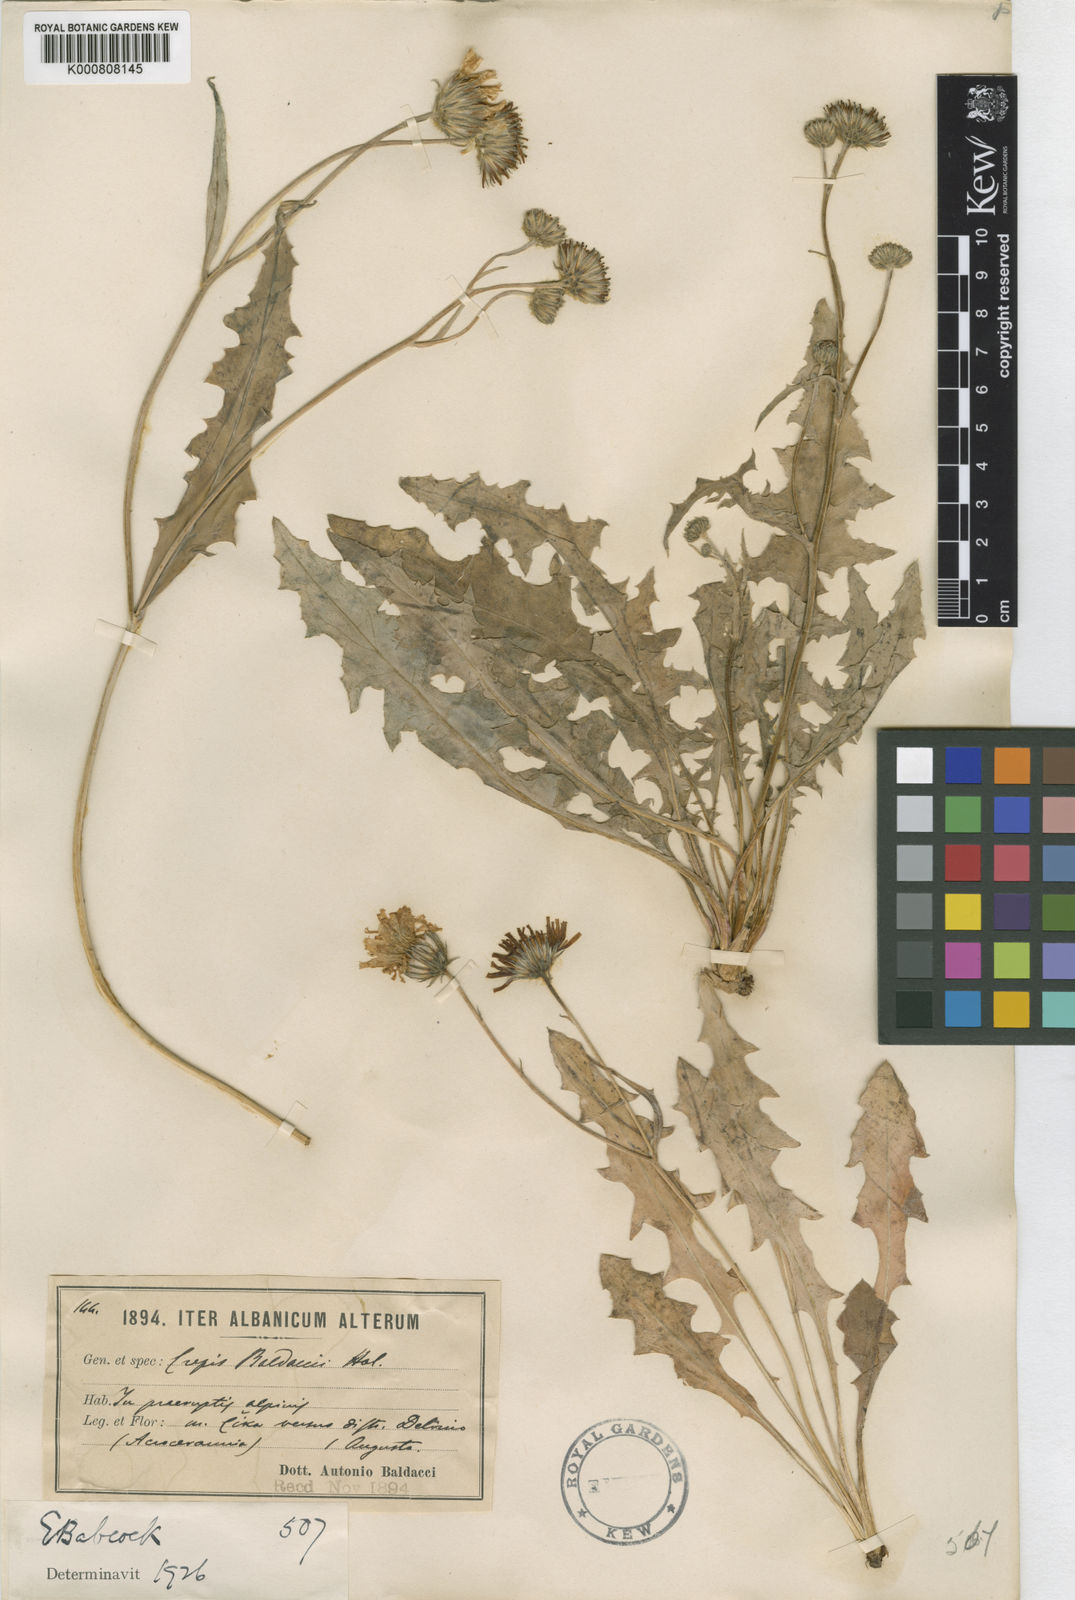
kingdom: Plantae
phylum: Tracheophyta
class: Magnoliopsida
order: Asterales
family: Asteraceae
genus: Crepis
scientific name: Crepis
